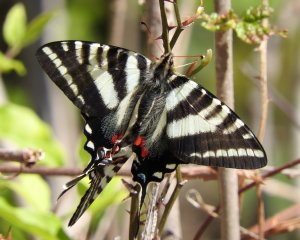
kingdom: Animalia
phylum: Arthropoda
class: Insecta
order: Lepidoptera
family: Papilionidae
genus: Protographium
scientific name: Protographium marcellus
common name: Zebra Swallowtail
